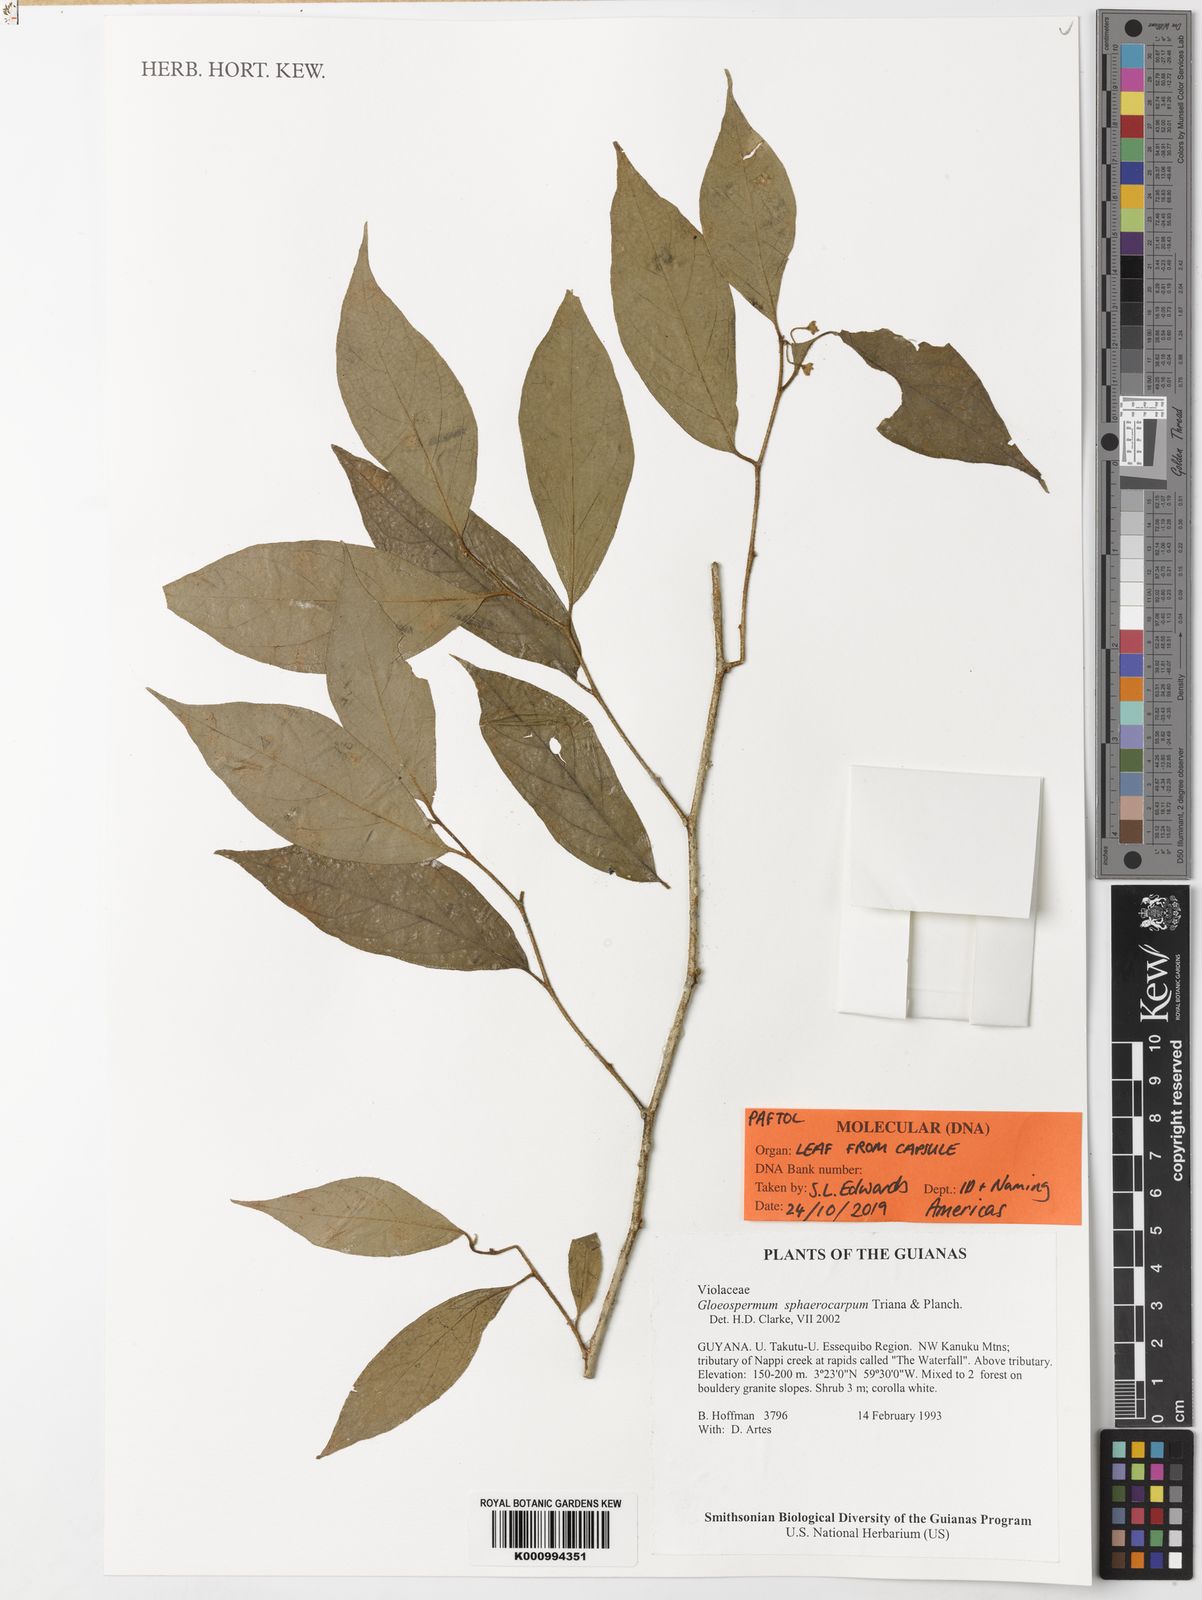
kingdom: Plantae
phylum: Tracheophyta
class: Magnoliopsida
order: Malpighiales
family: Violaceae
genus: Gloeospermum
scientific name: Gloeospermum sphaerocarpum
